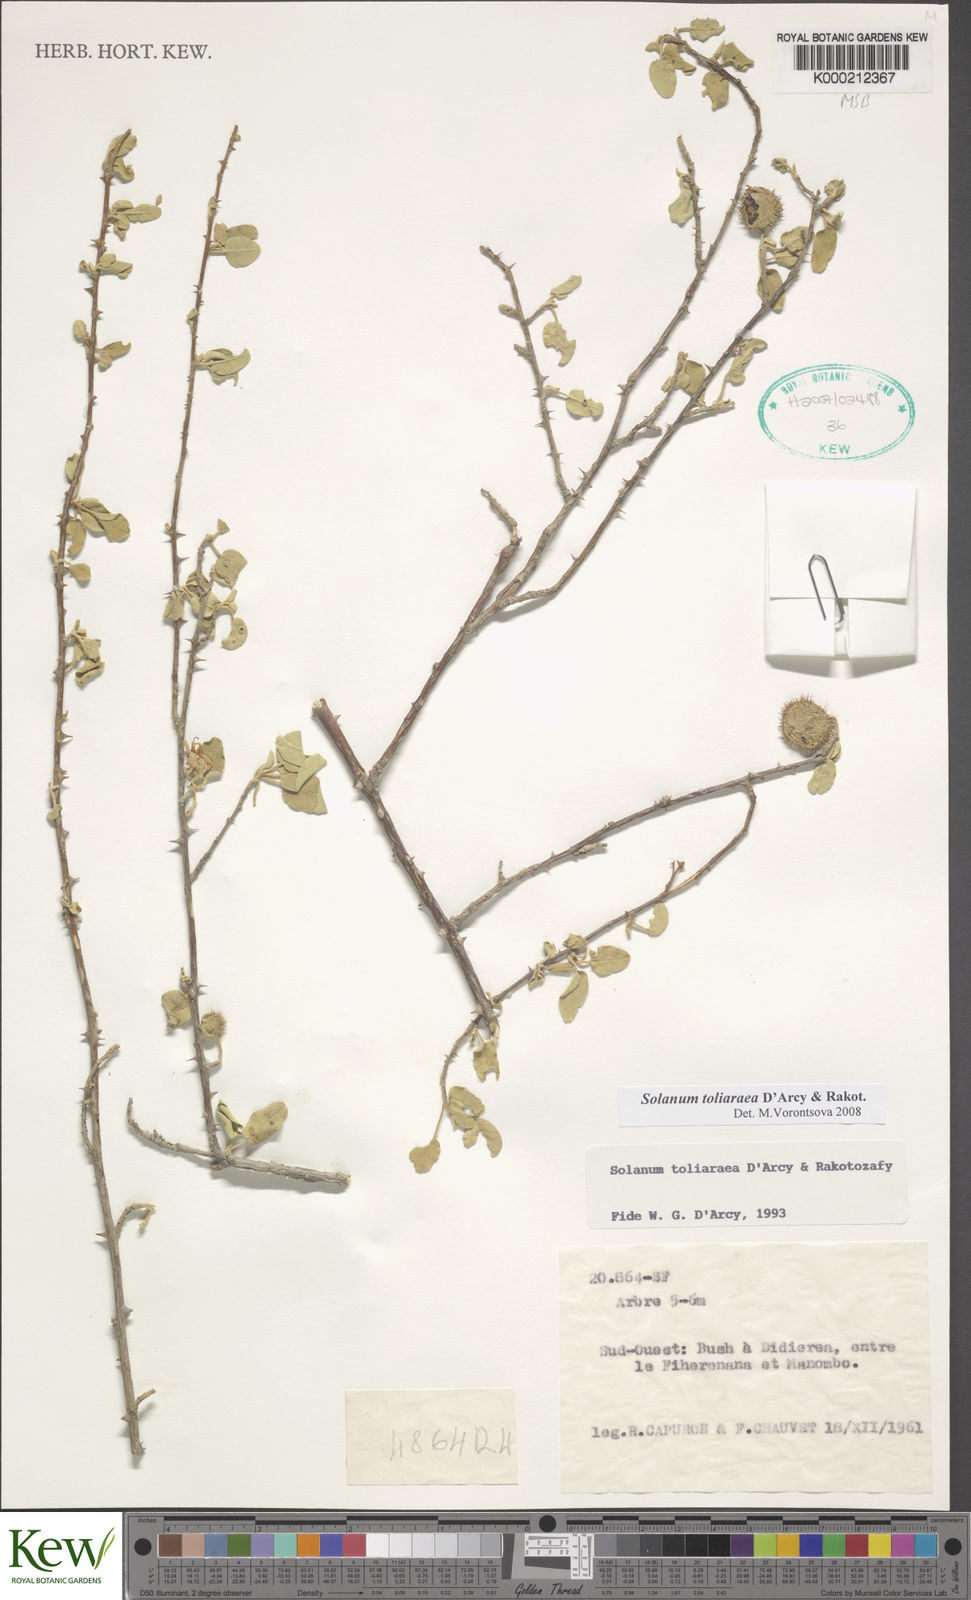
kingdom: Plantae
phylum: Tracheophyta
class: Magnoliopsida
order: Solanales
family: Solanaceae
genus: Solanum
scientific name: Solanum toliaraea
